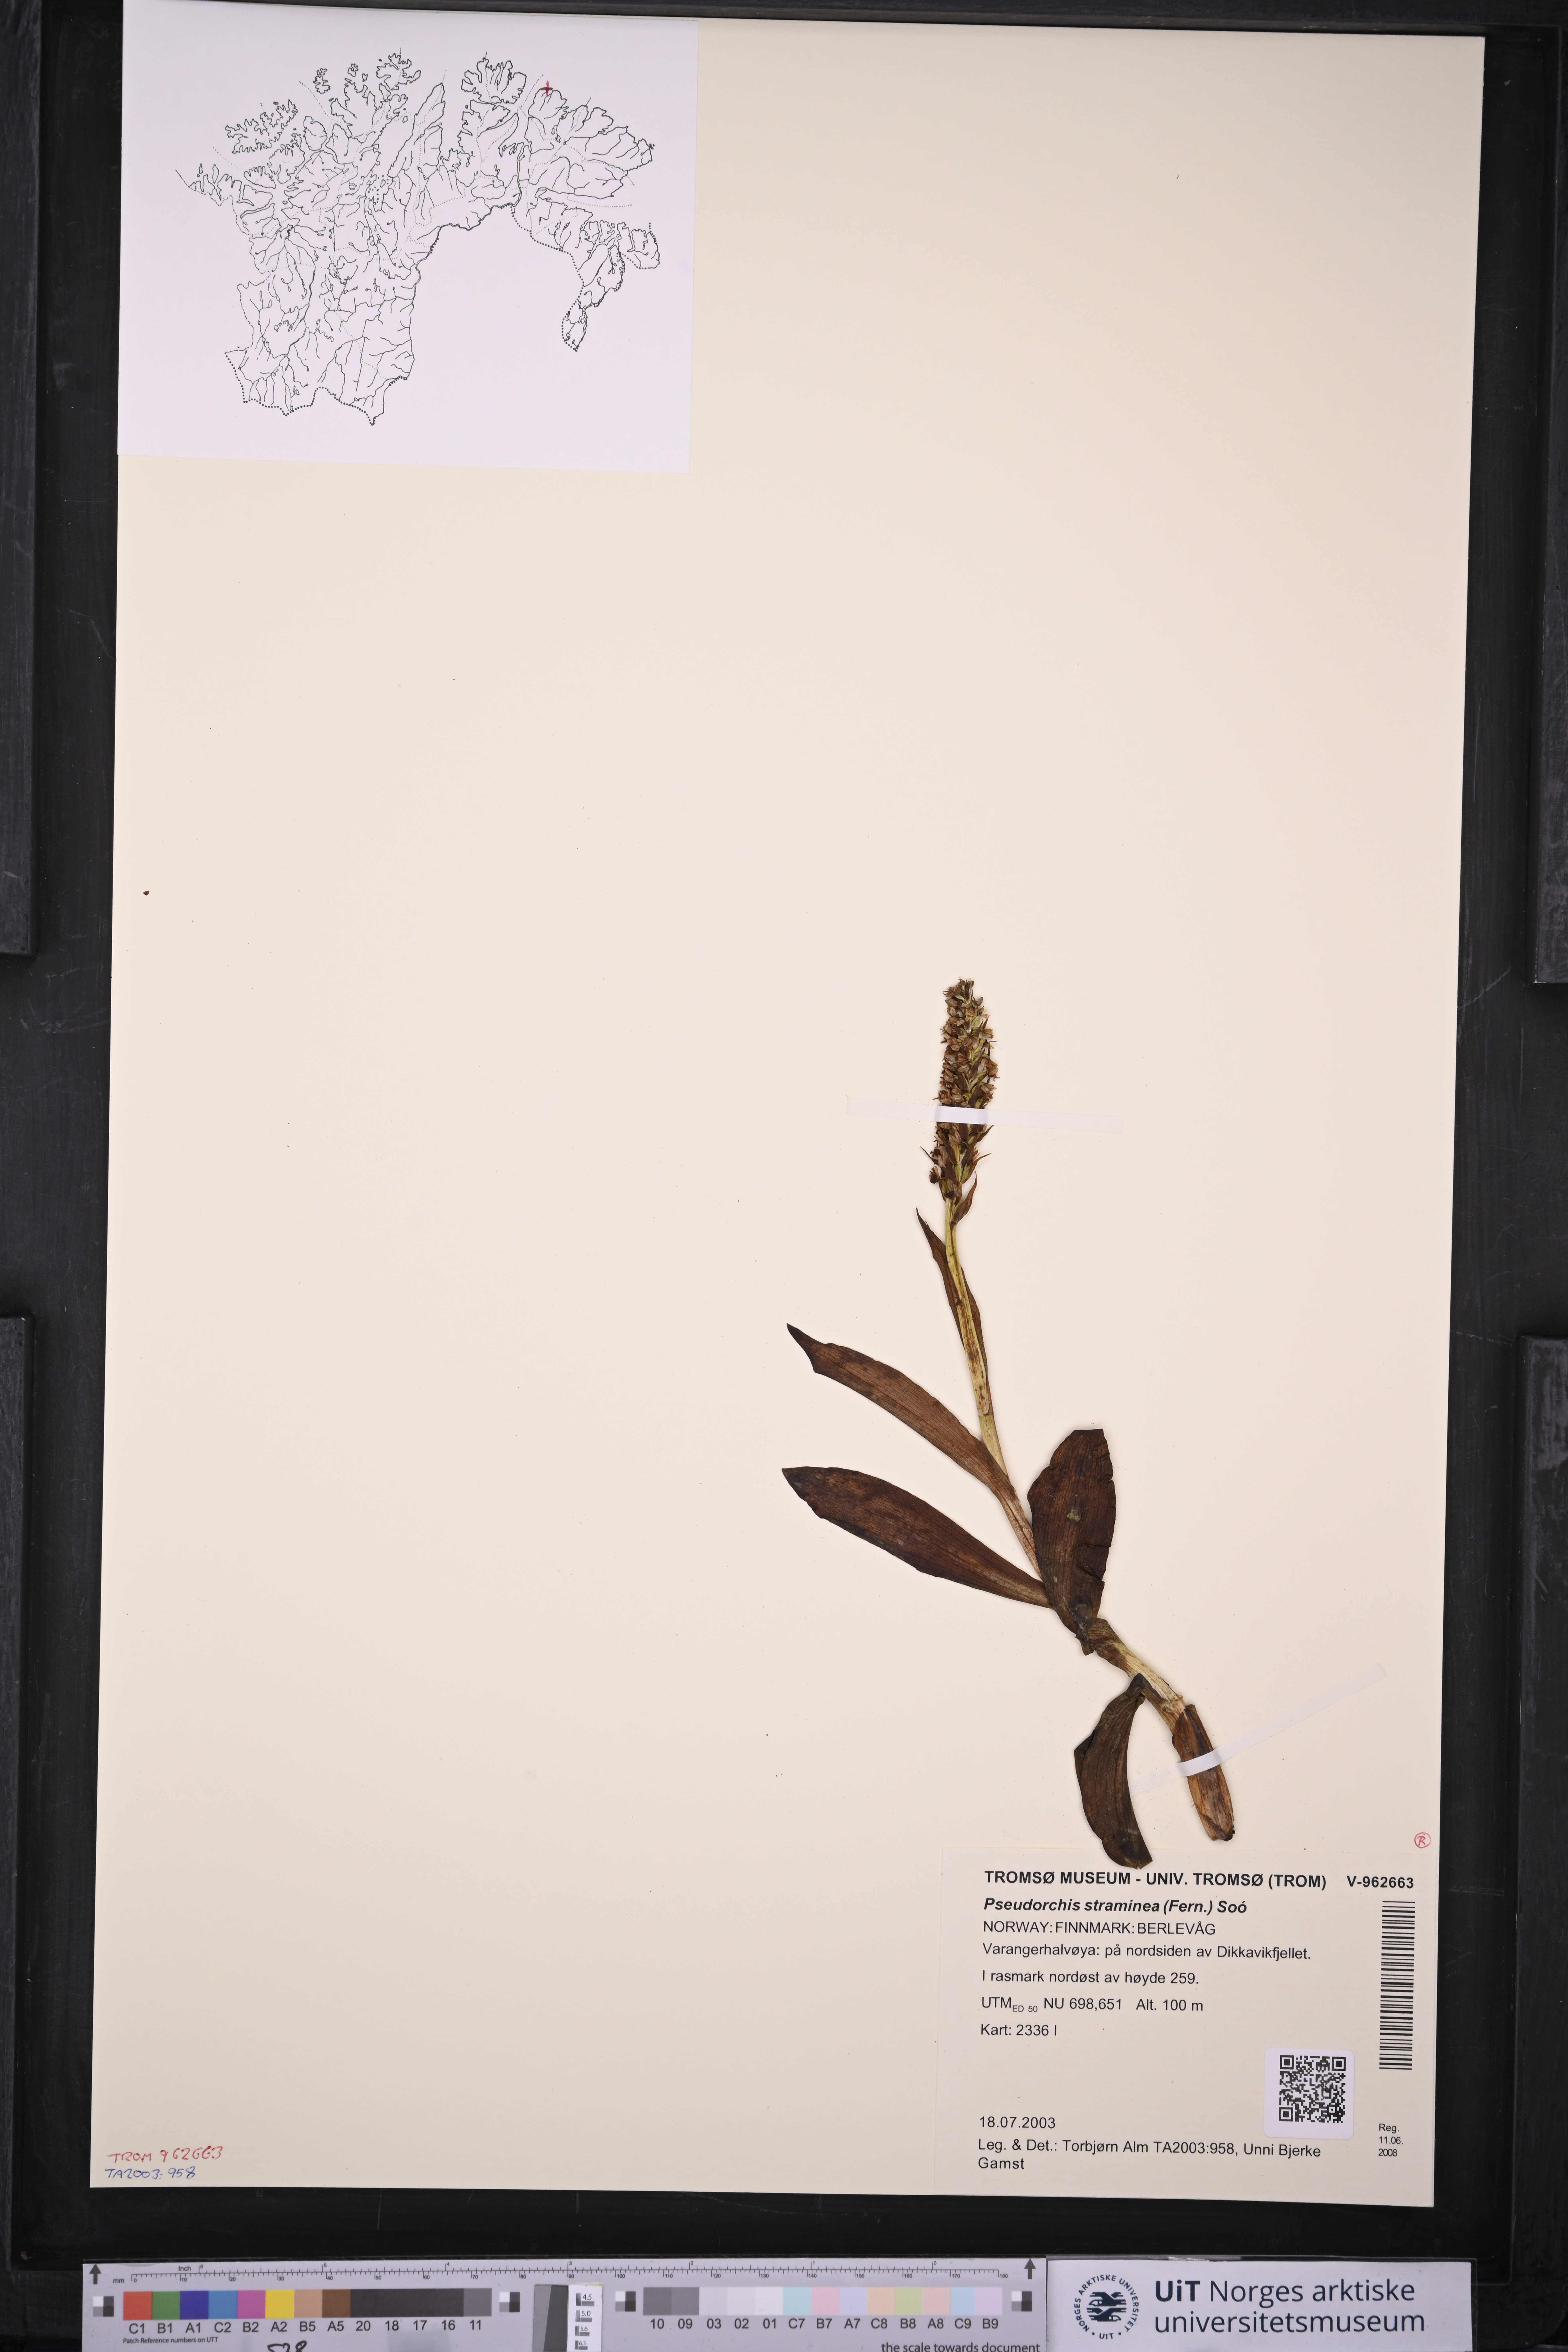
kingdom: Plantae
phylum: Tracheophyta
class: Liliopsida
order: Asparagales
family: Orchidaceae
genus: Pseudorchis
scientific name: Pseudorchis straminea
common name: Vanilla-scented bog orchid
